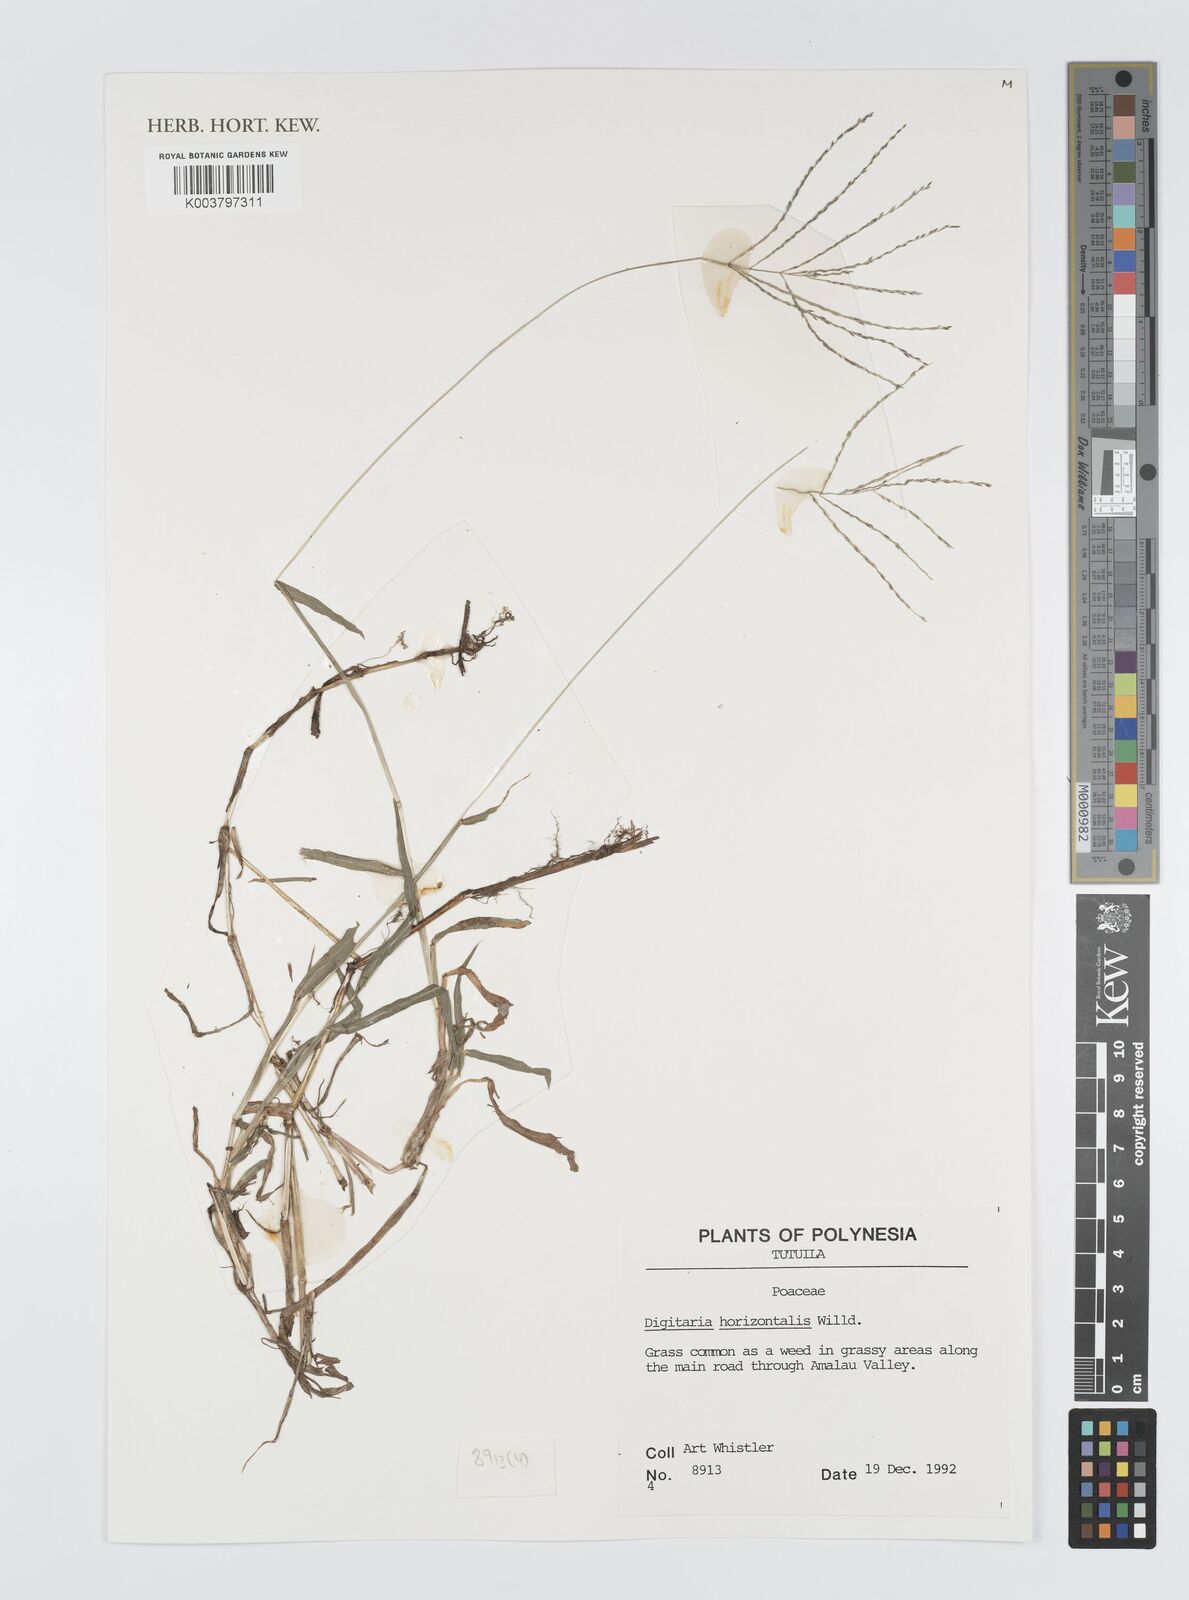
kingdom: Plantae
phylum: Tracheophyta
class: Liliopsida
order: Poales
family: Poaceae
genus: Digitaria
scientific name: Digitaria horizontalis
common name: Jamaican crabgrass
